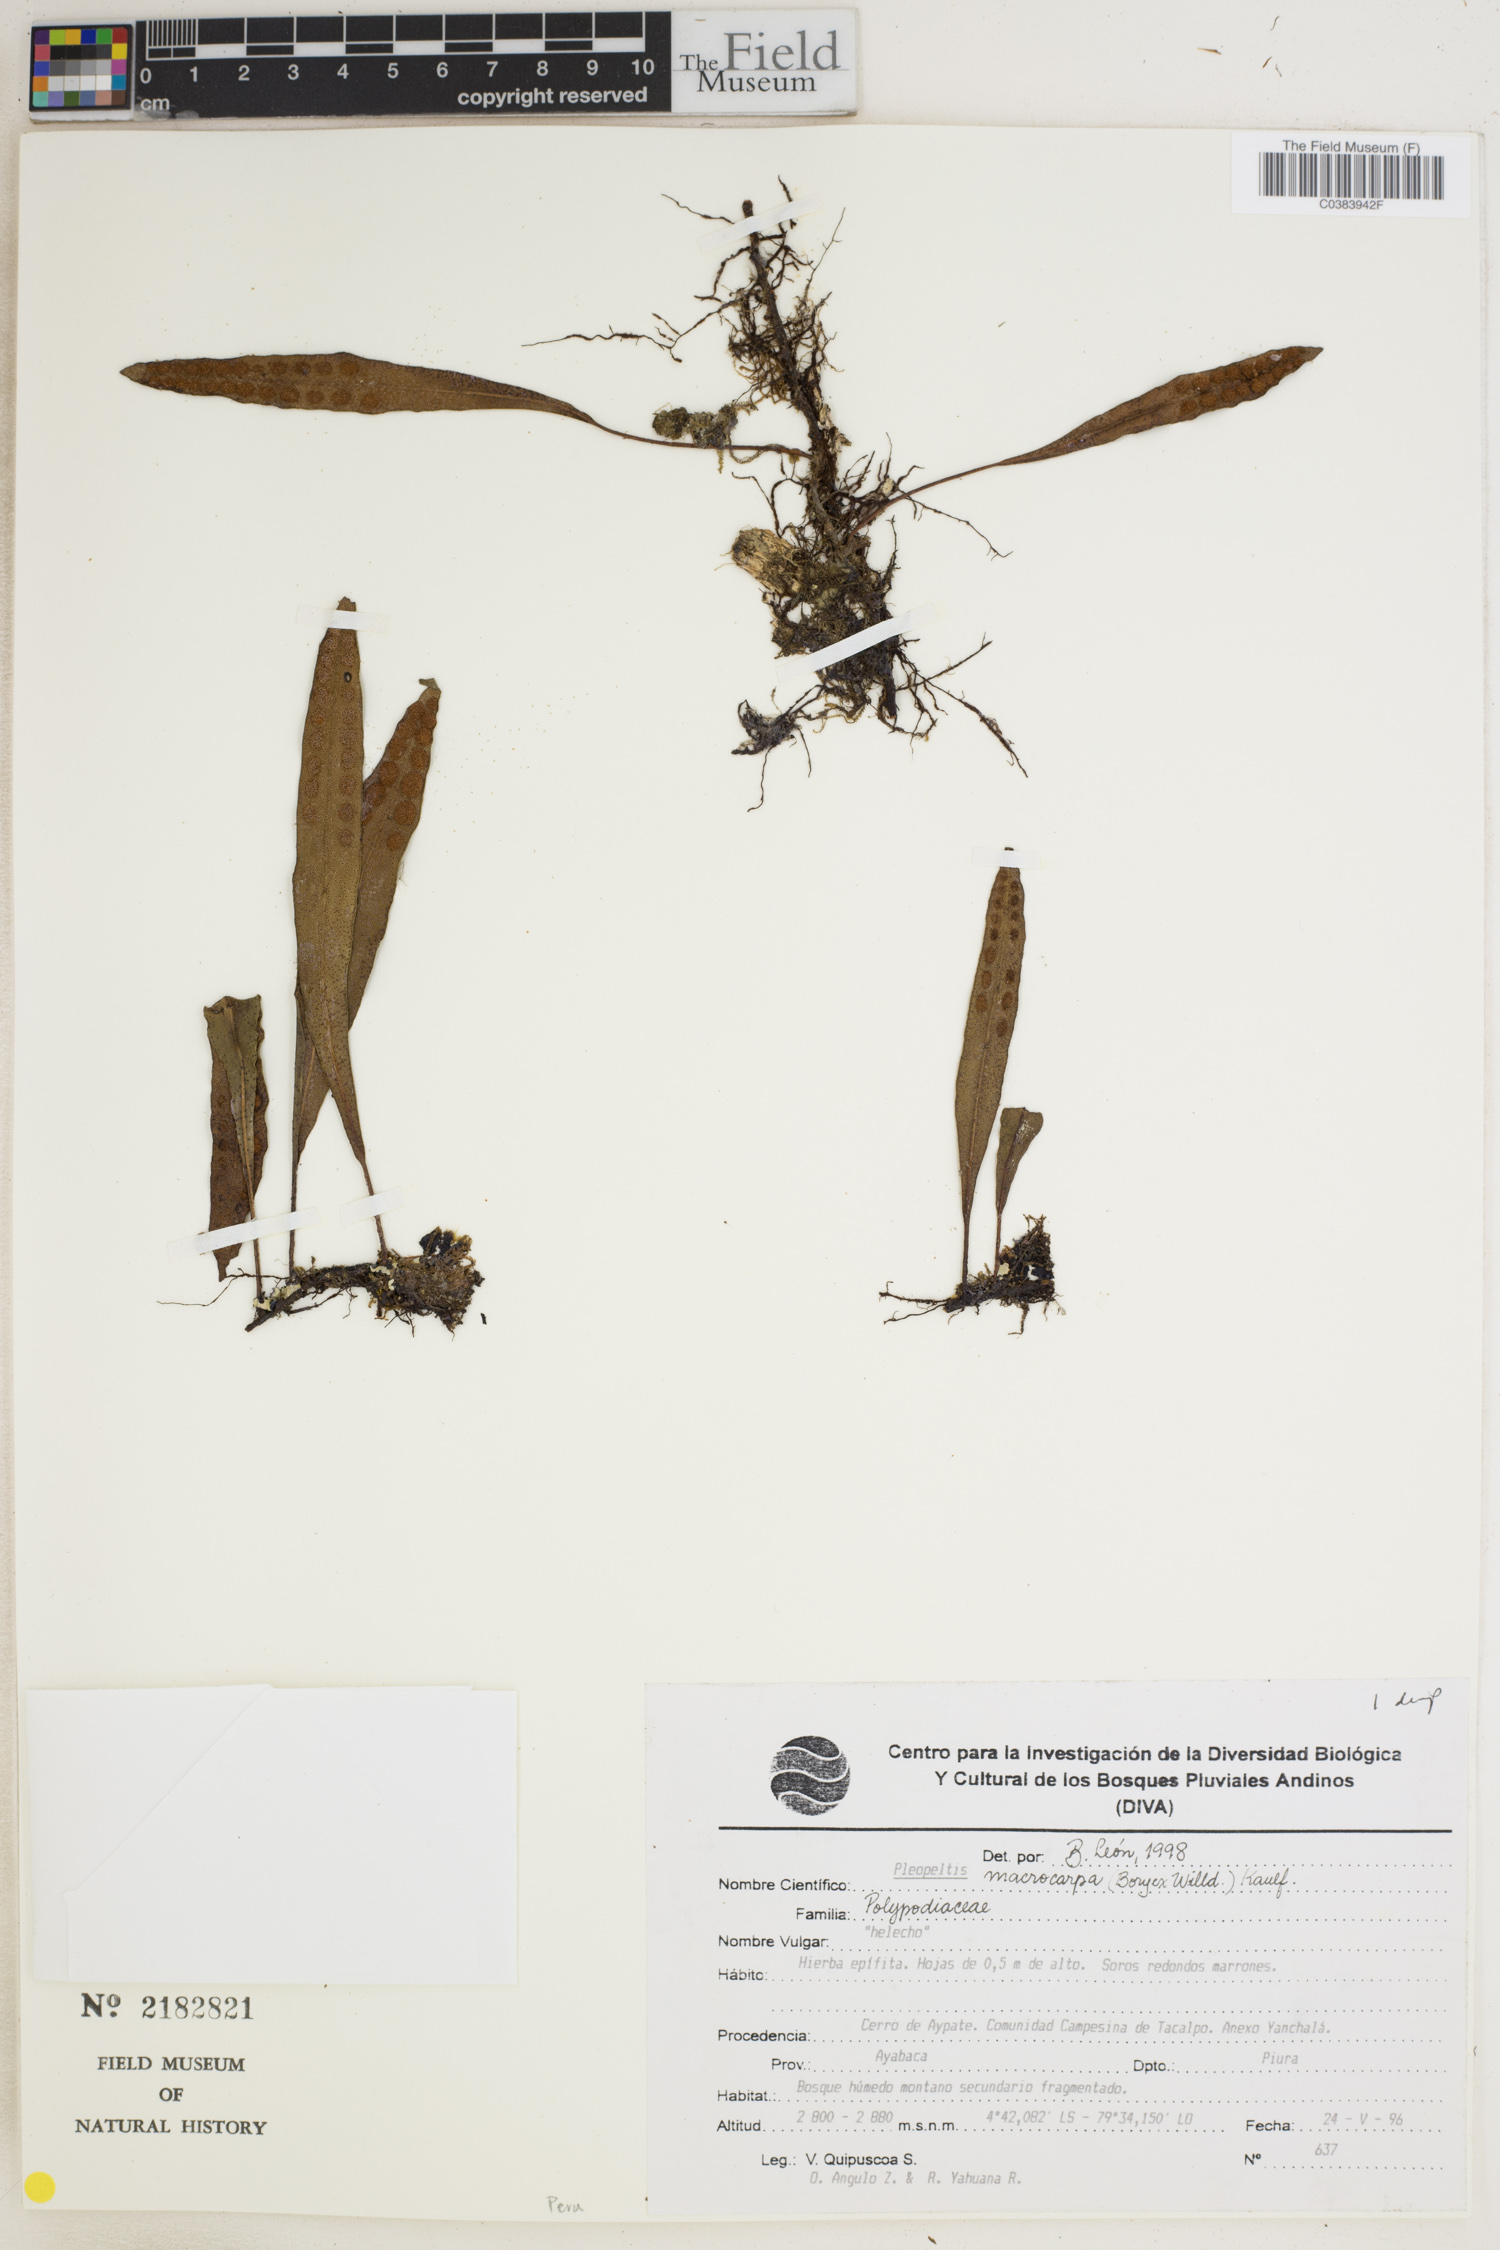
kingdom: Plantae
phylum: Tracheophyta
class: Polypodiopsida
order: Polypodiales
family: Polypodiaceae
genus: Pleopeltis
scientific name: Pleopeltis macrocarpa
